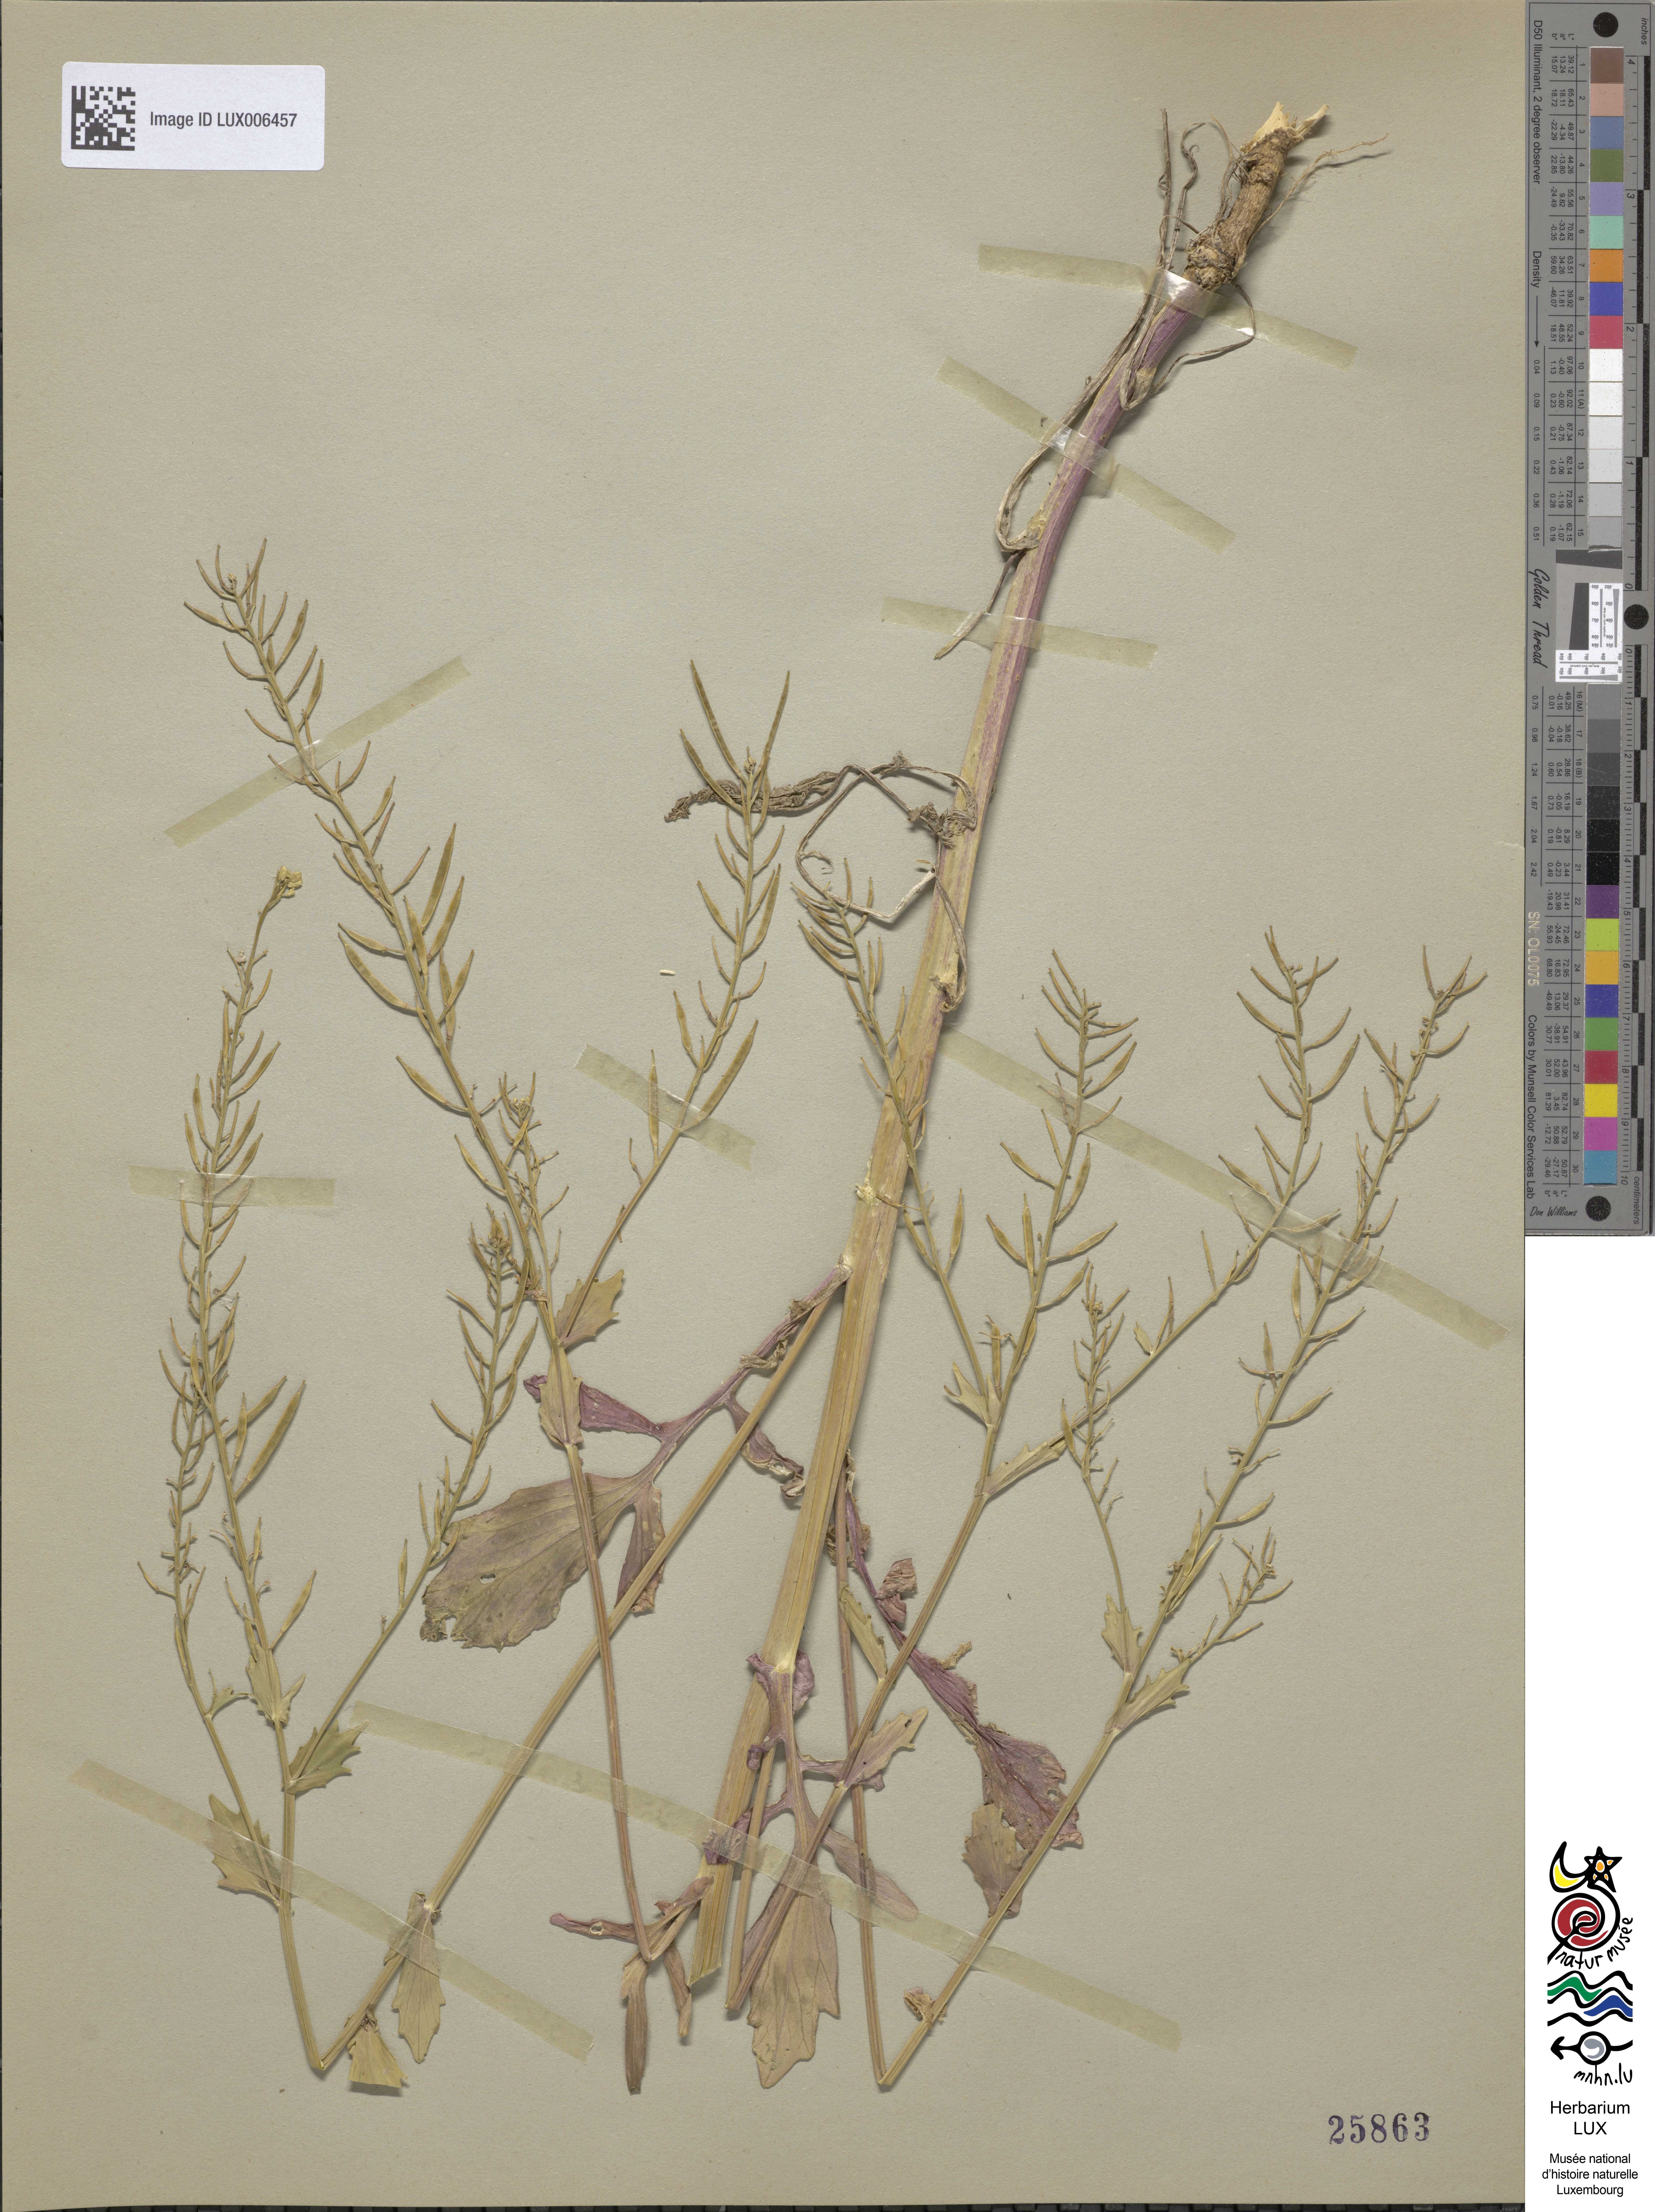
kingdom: Plantae
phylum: Tracheophyta
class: Magnoliopsida
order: Brassicales
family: Brassicaceae
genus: Barbarea
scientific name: Barbarea vulgaris
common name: Cressy-greens
